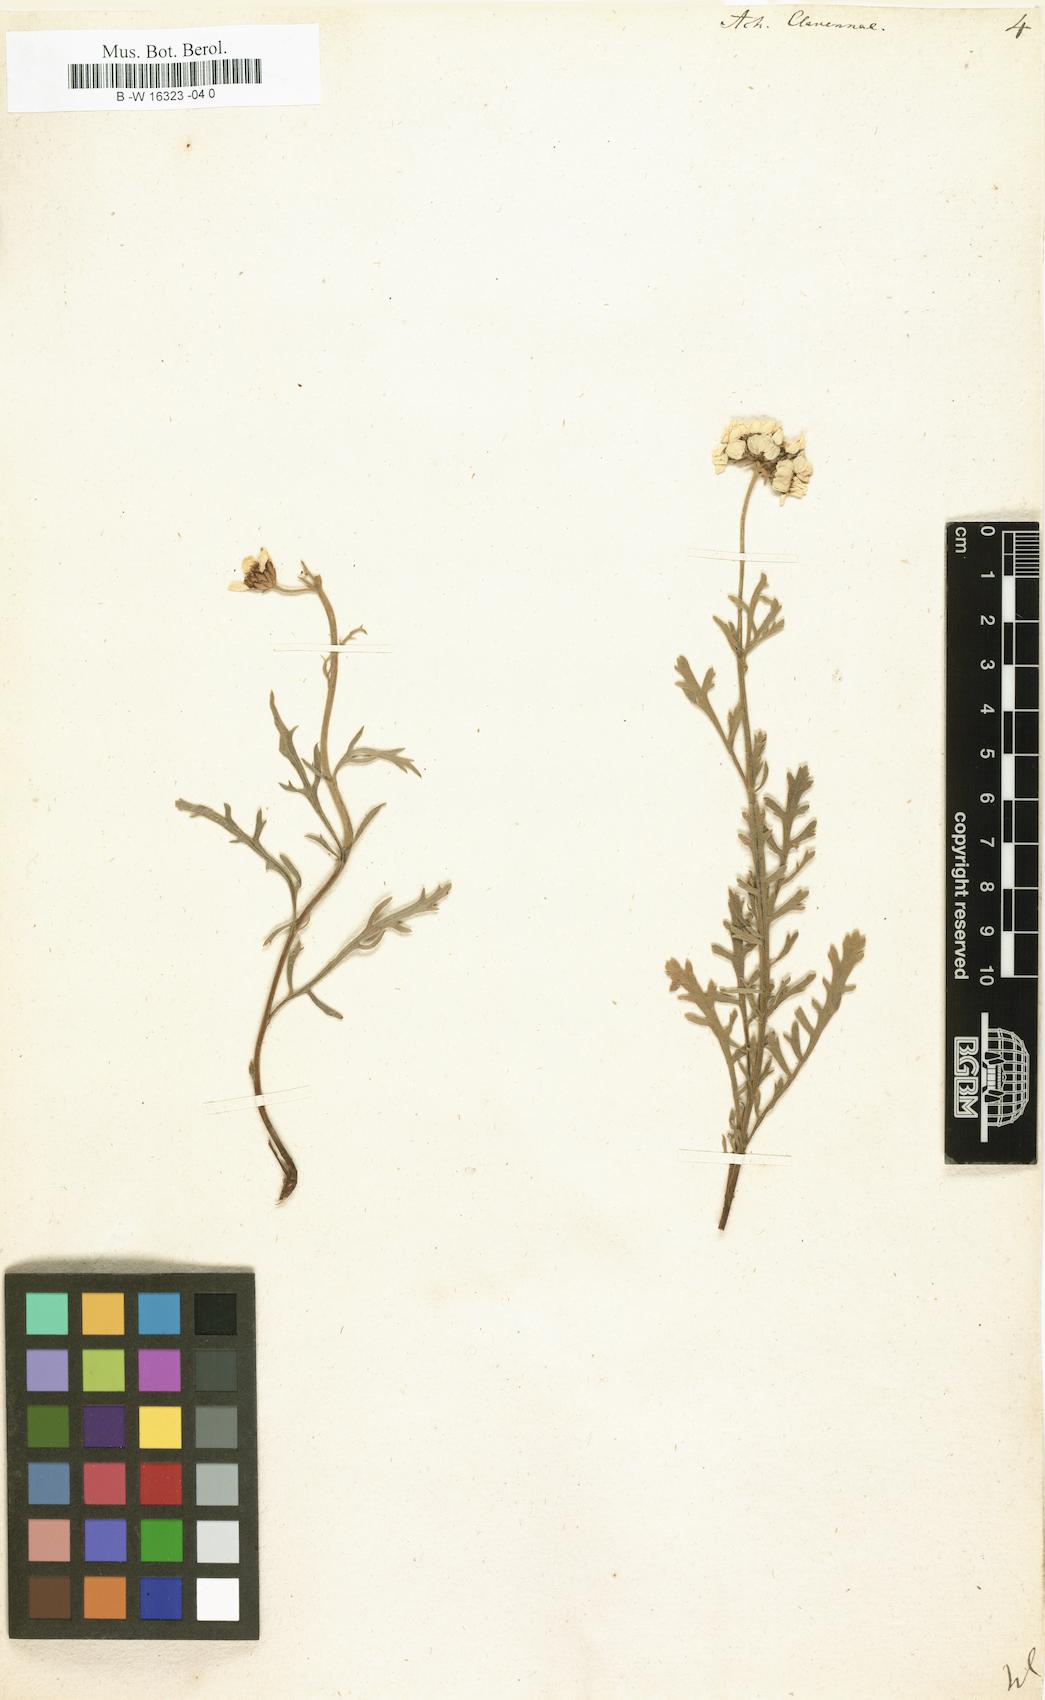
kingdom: Plantae
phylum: Tracheophyta
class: Magnoliopsida
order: Asterales
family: Asteraceae
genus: Achillea
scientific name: Achillea clavennae
